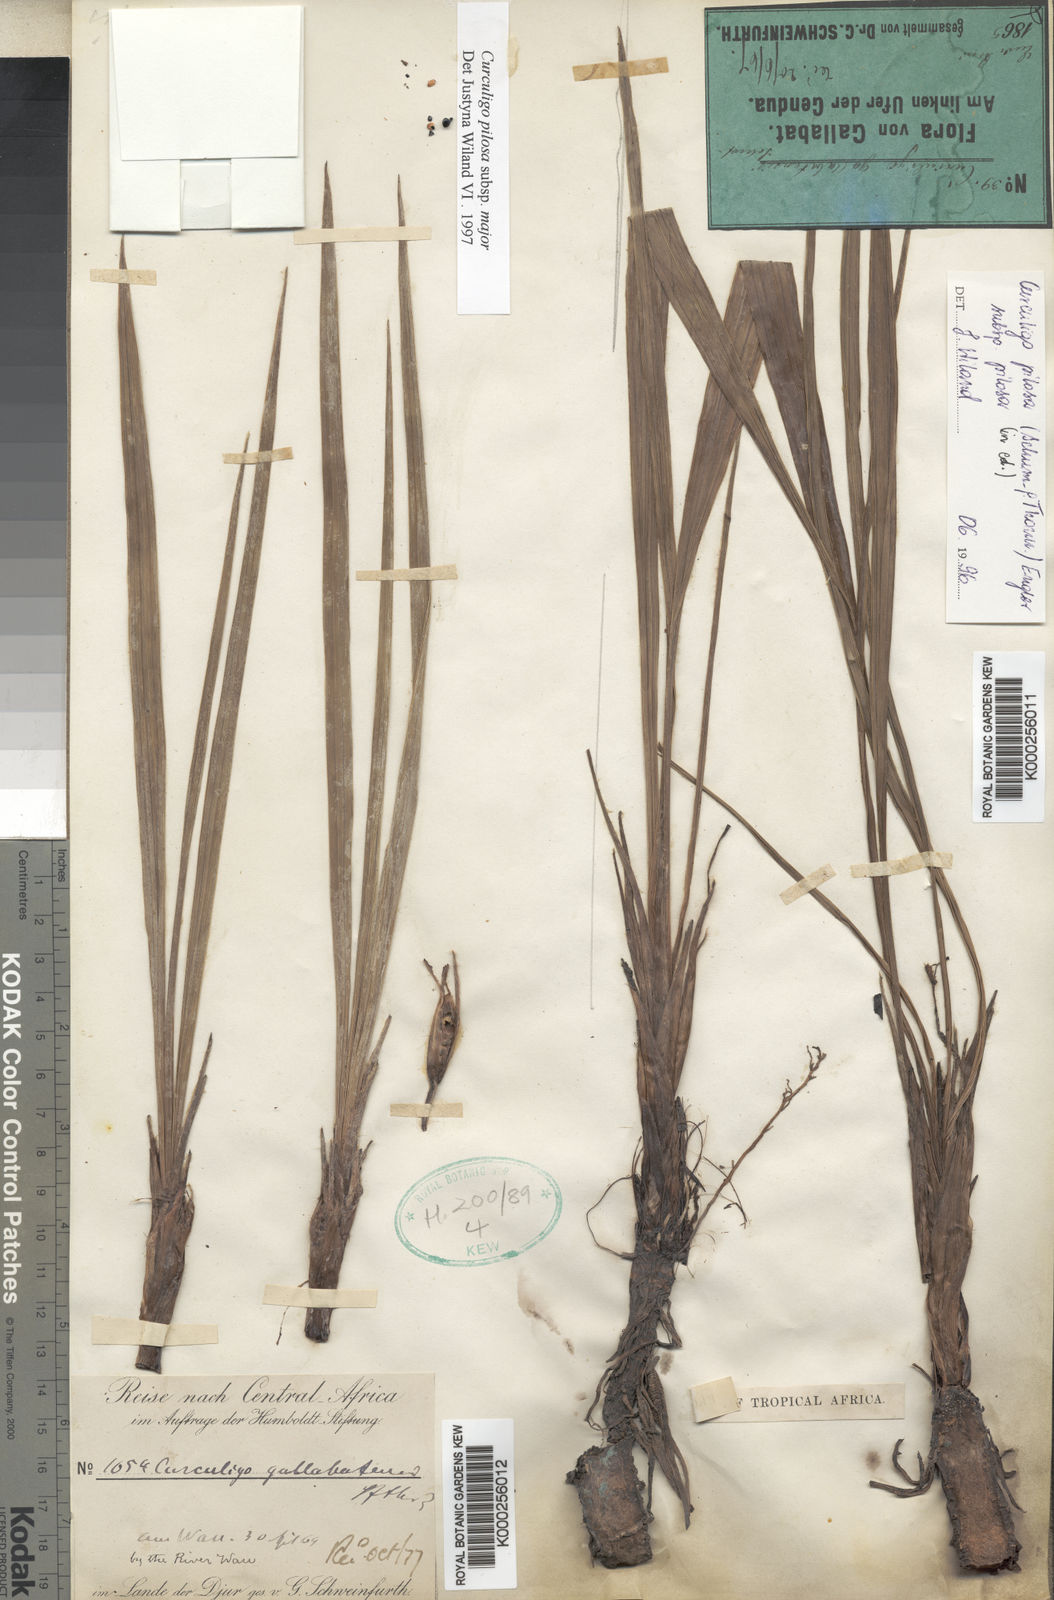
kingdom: Plantae
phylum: Tracheophyta
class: Liliopsida
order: Asparagales
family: Hypoxidaceae
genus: Curculigo
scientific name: Curculigo pilosa
